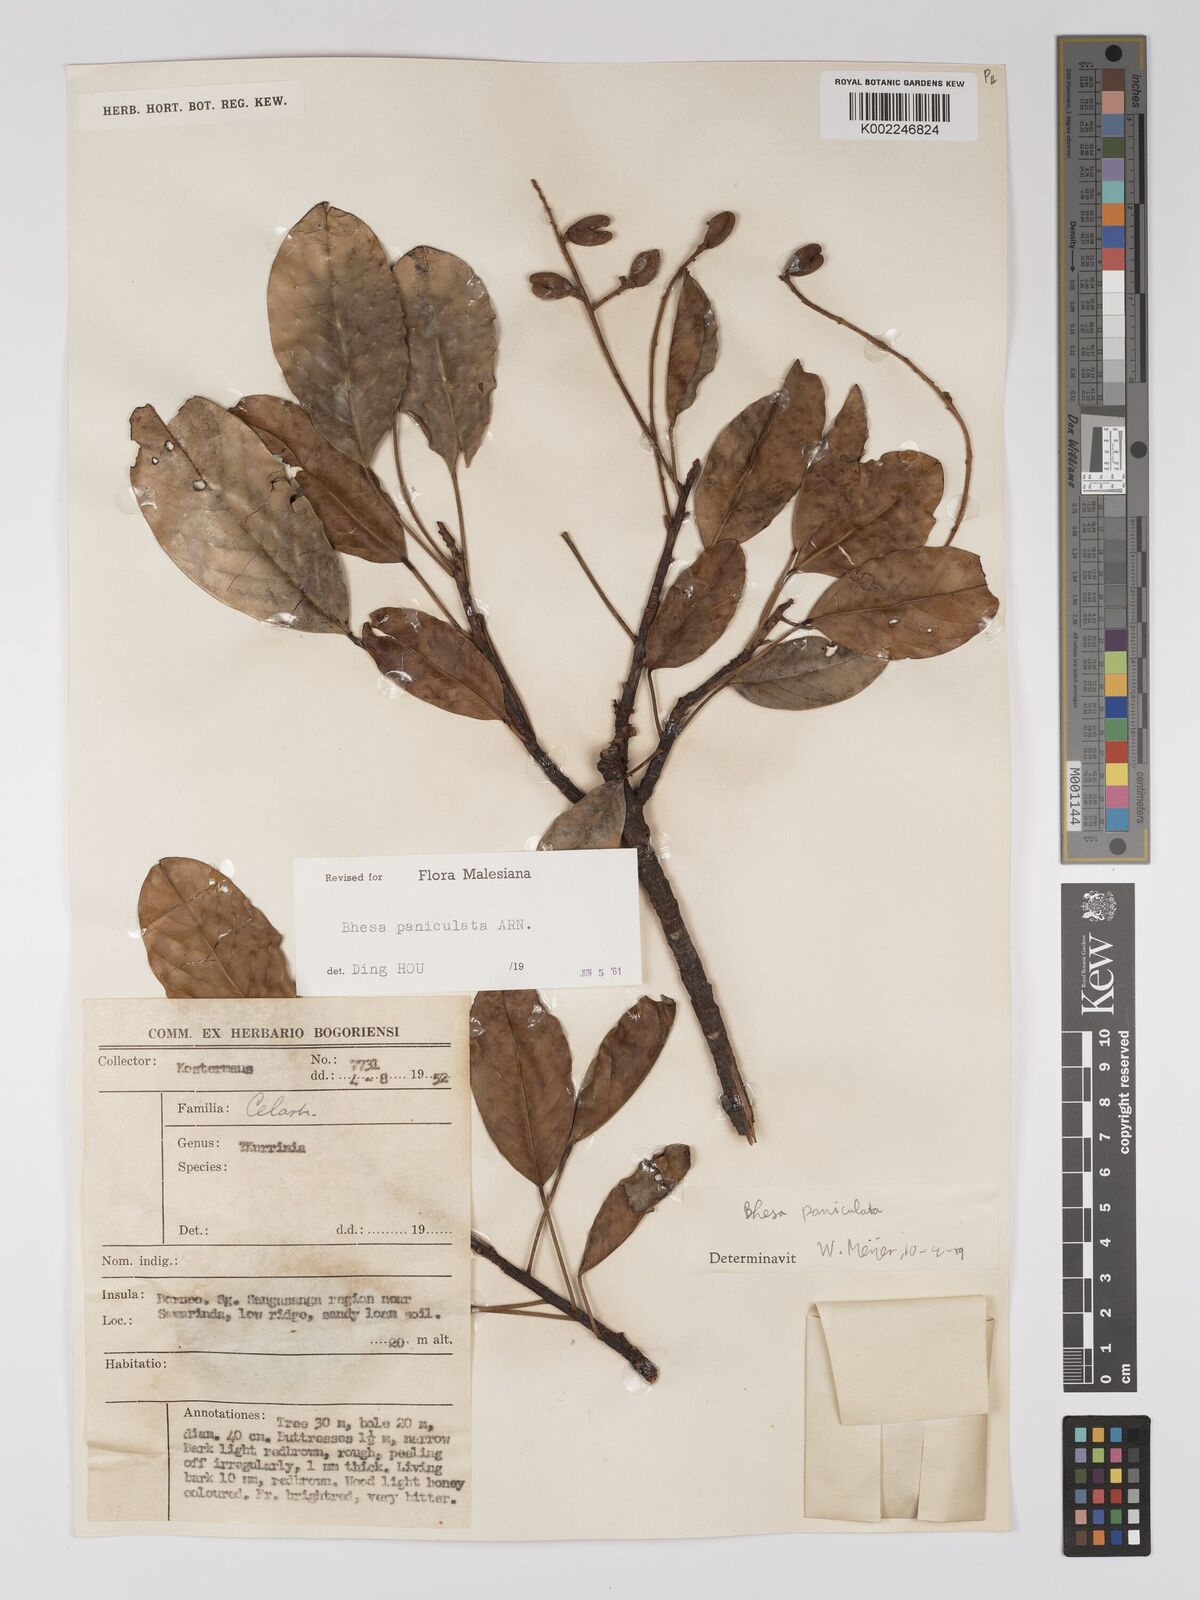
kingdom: Plantae
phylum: Tracheophyta
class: Magnoliopsida
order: Malpighiales
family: Centroplacaceae
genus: Bhesa
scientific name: Bhesa paniculata
